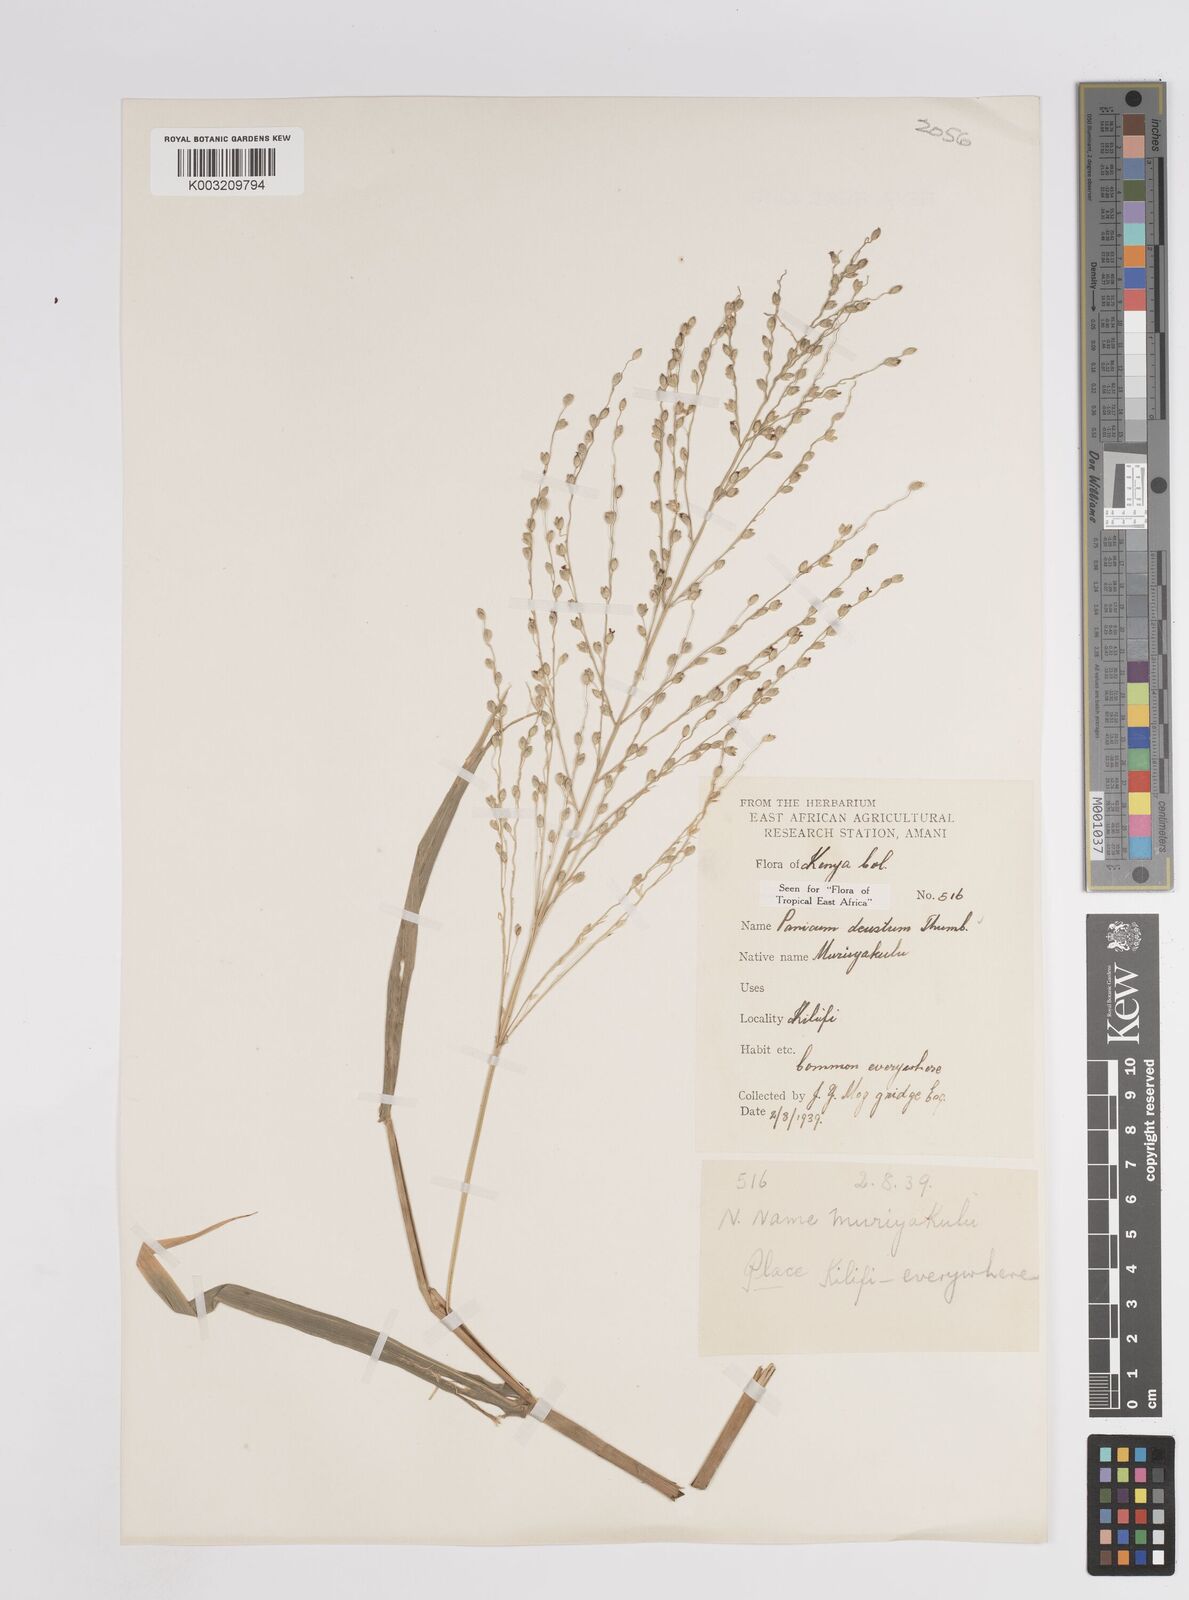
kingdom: Plantae
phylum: Tracheophyta
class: Liliopsida
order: Poales
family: Poaceae
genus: Panicum
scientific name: Panicum deustum
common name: Reed panicum
